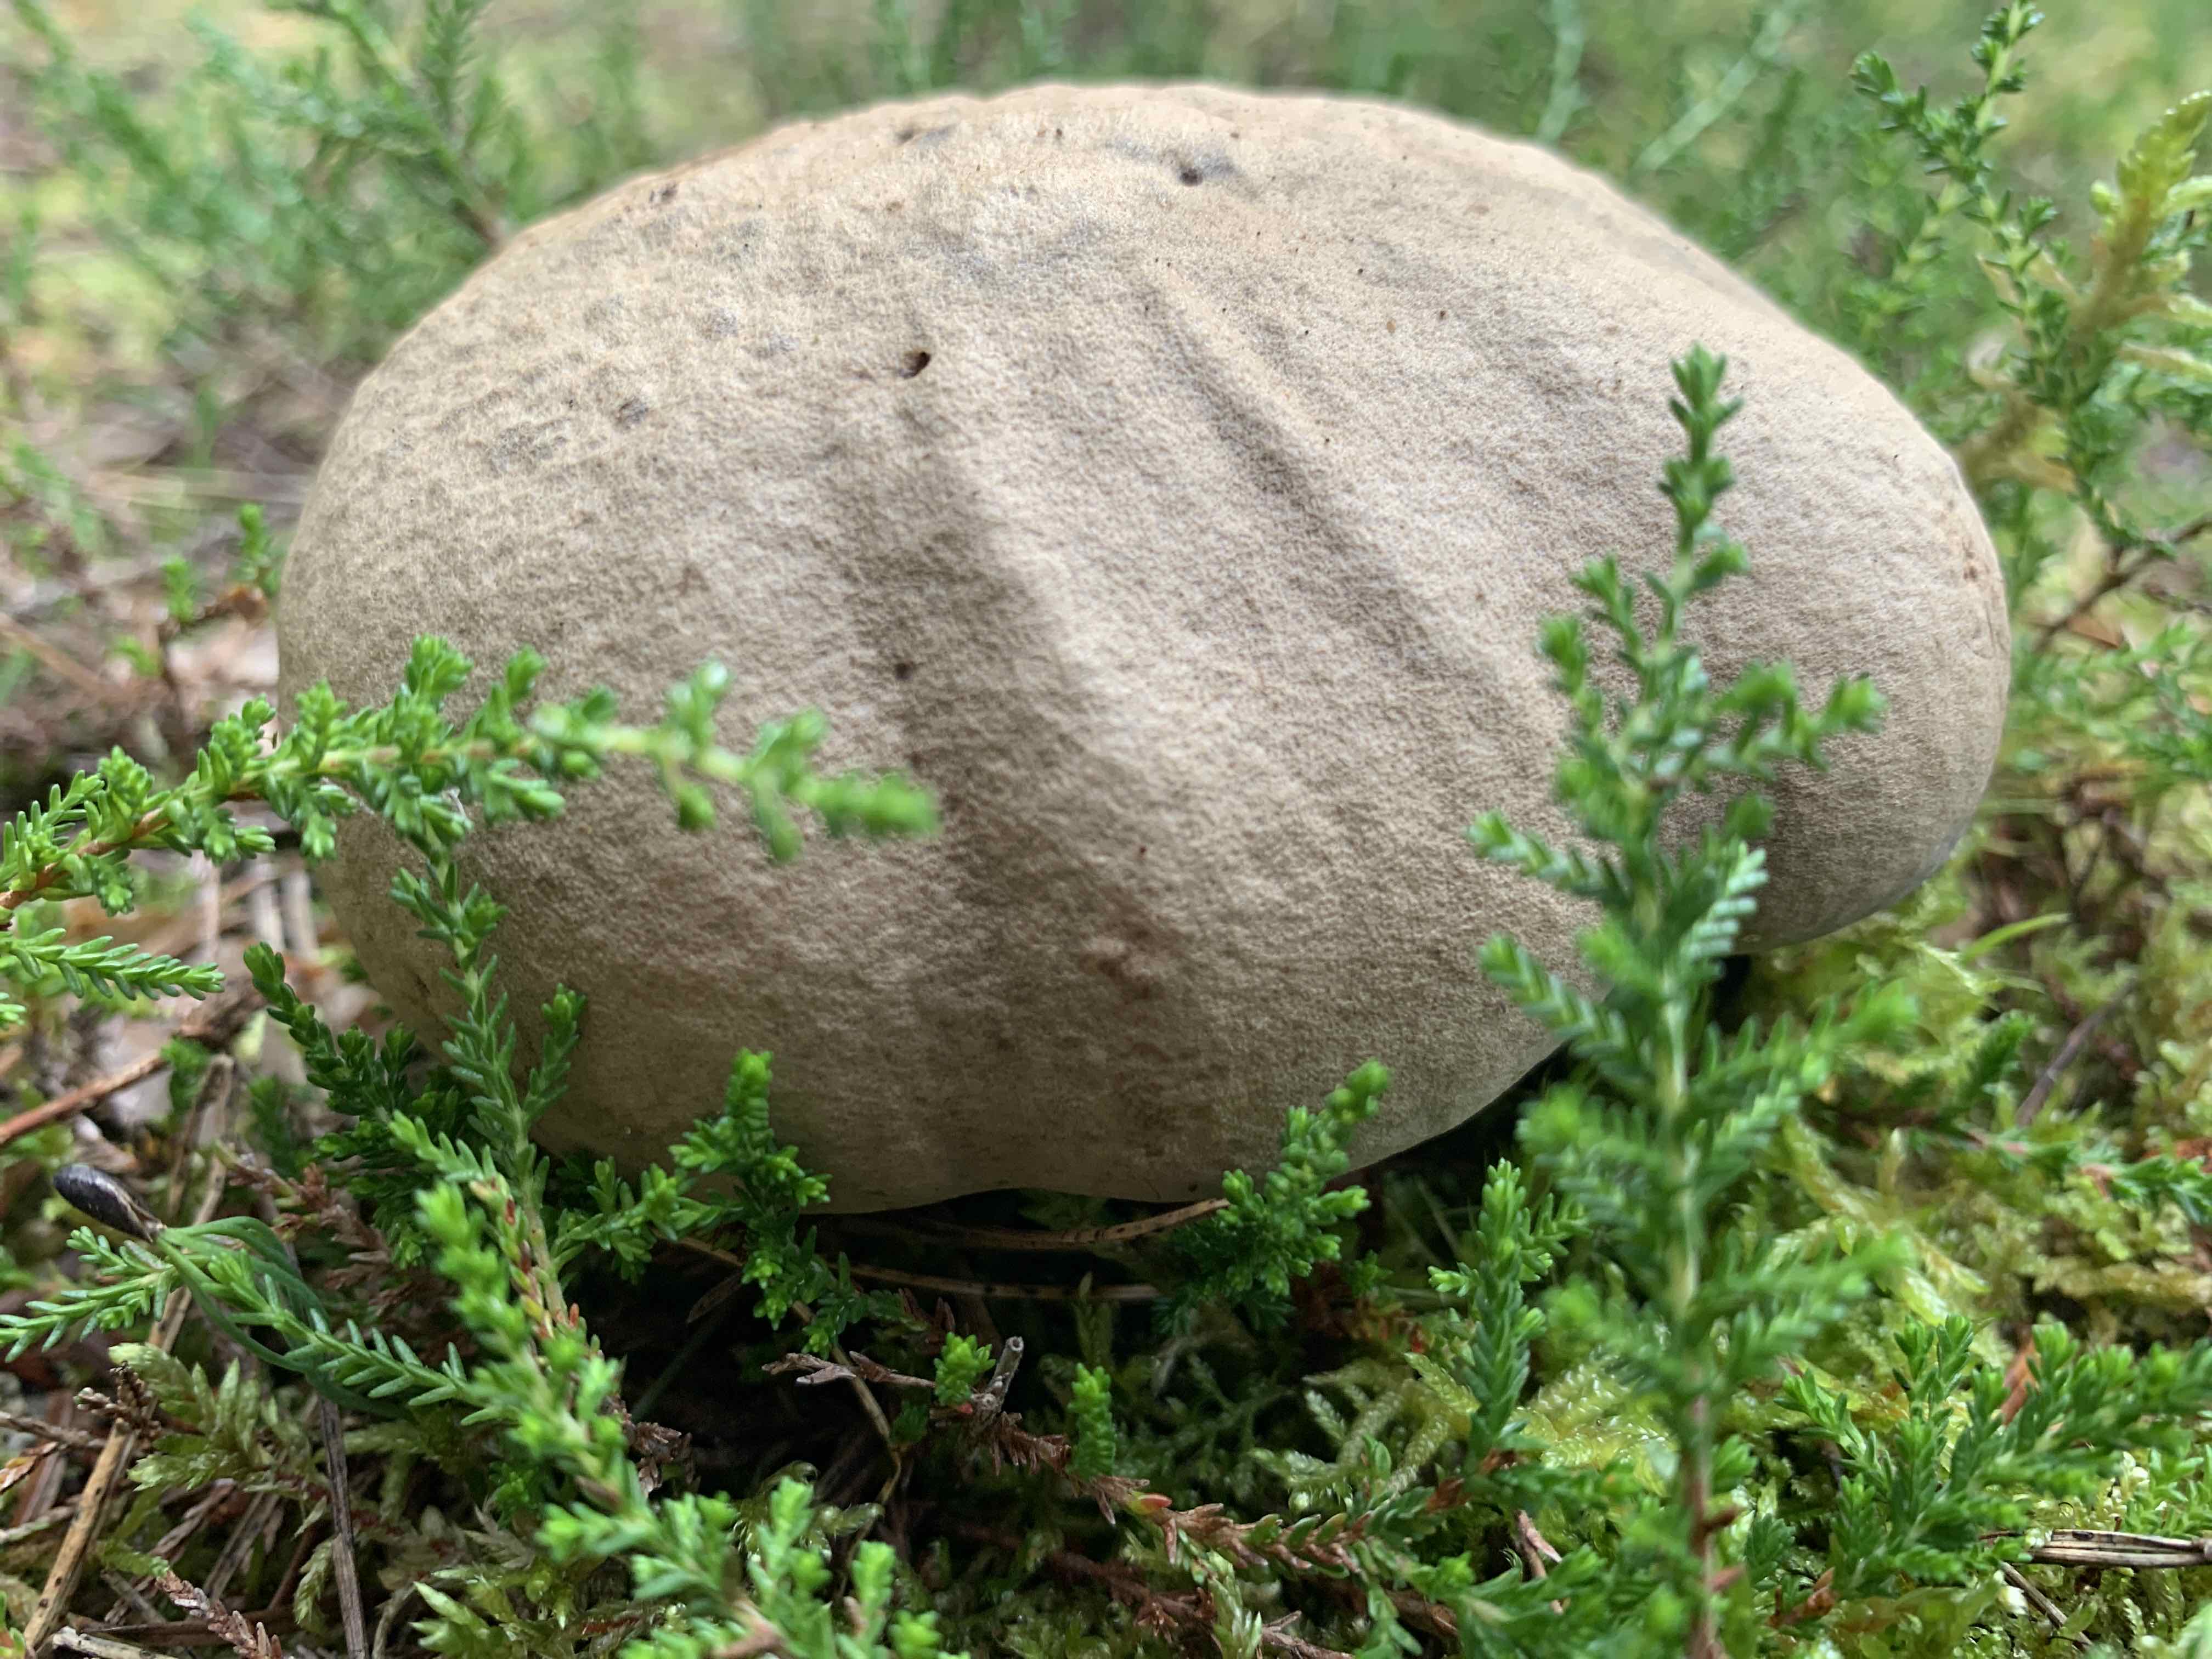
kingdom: Fungi
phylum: Basidiomycota
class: Agaricomycetes
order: Boletales
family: Boletaceae
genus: Caloboletus
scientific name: Caloboletus calopus
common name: skønfodet rørhat
